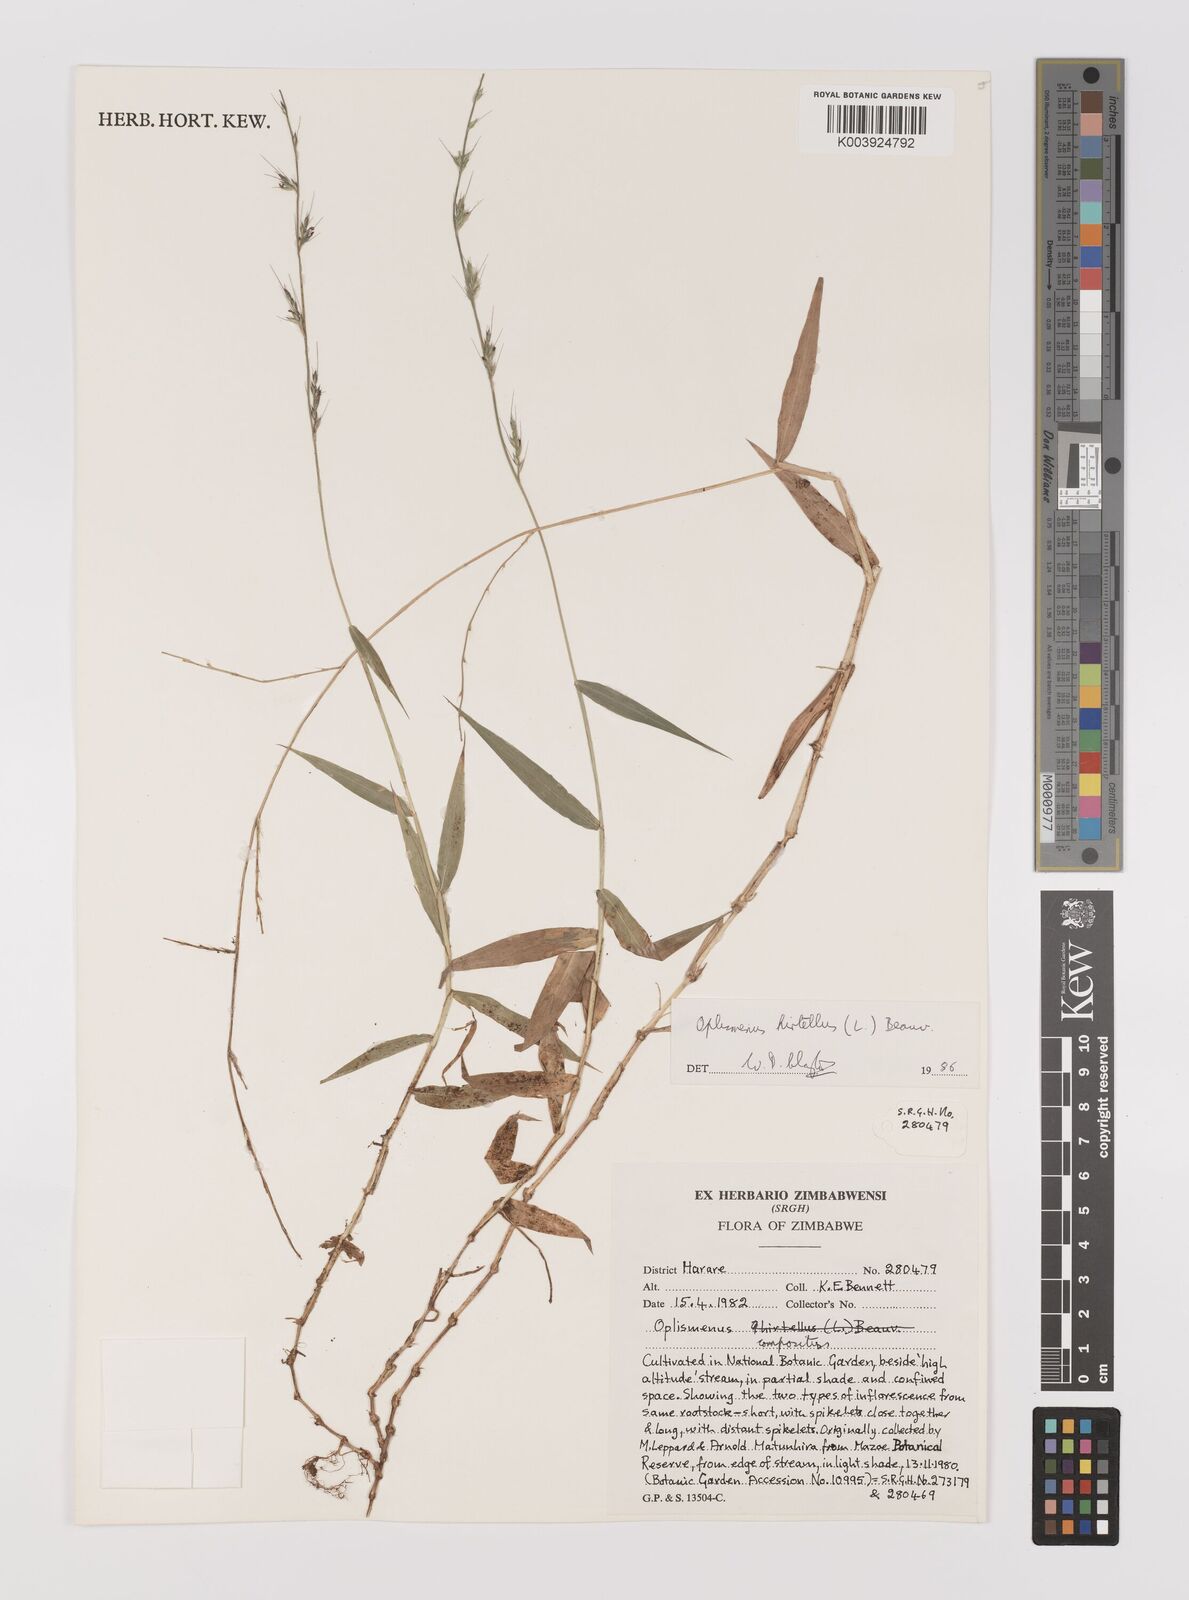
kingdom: Plantae
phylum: Tracheophyta
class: Liliopsida
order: Poales
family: Poaceae
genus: Oplismenus
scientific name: Oplismenus hirtellus
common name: Basketgrass
